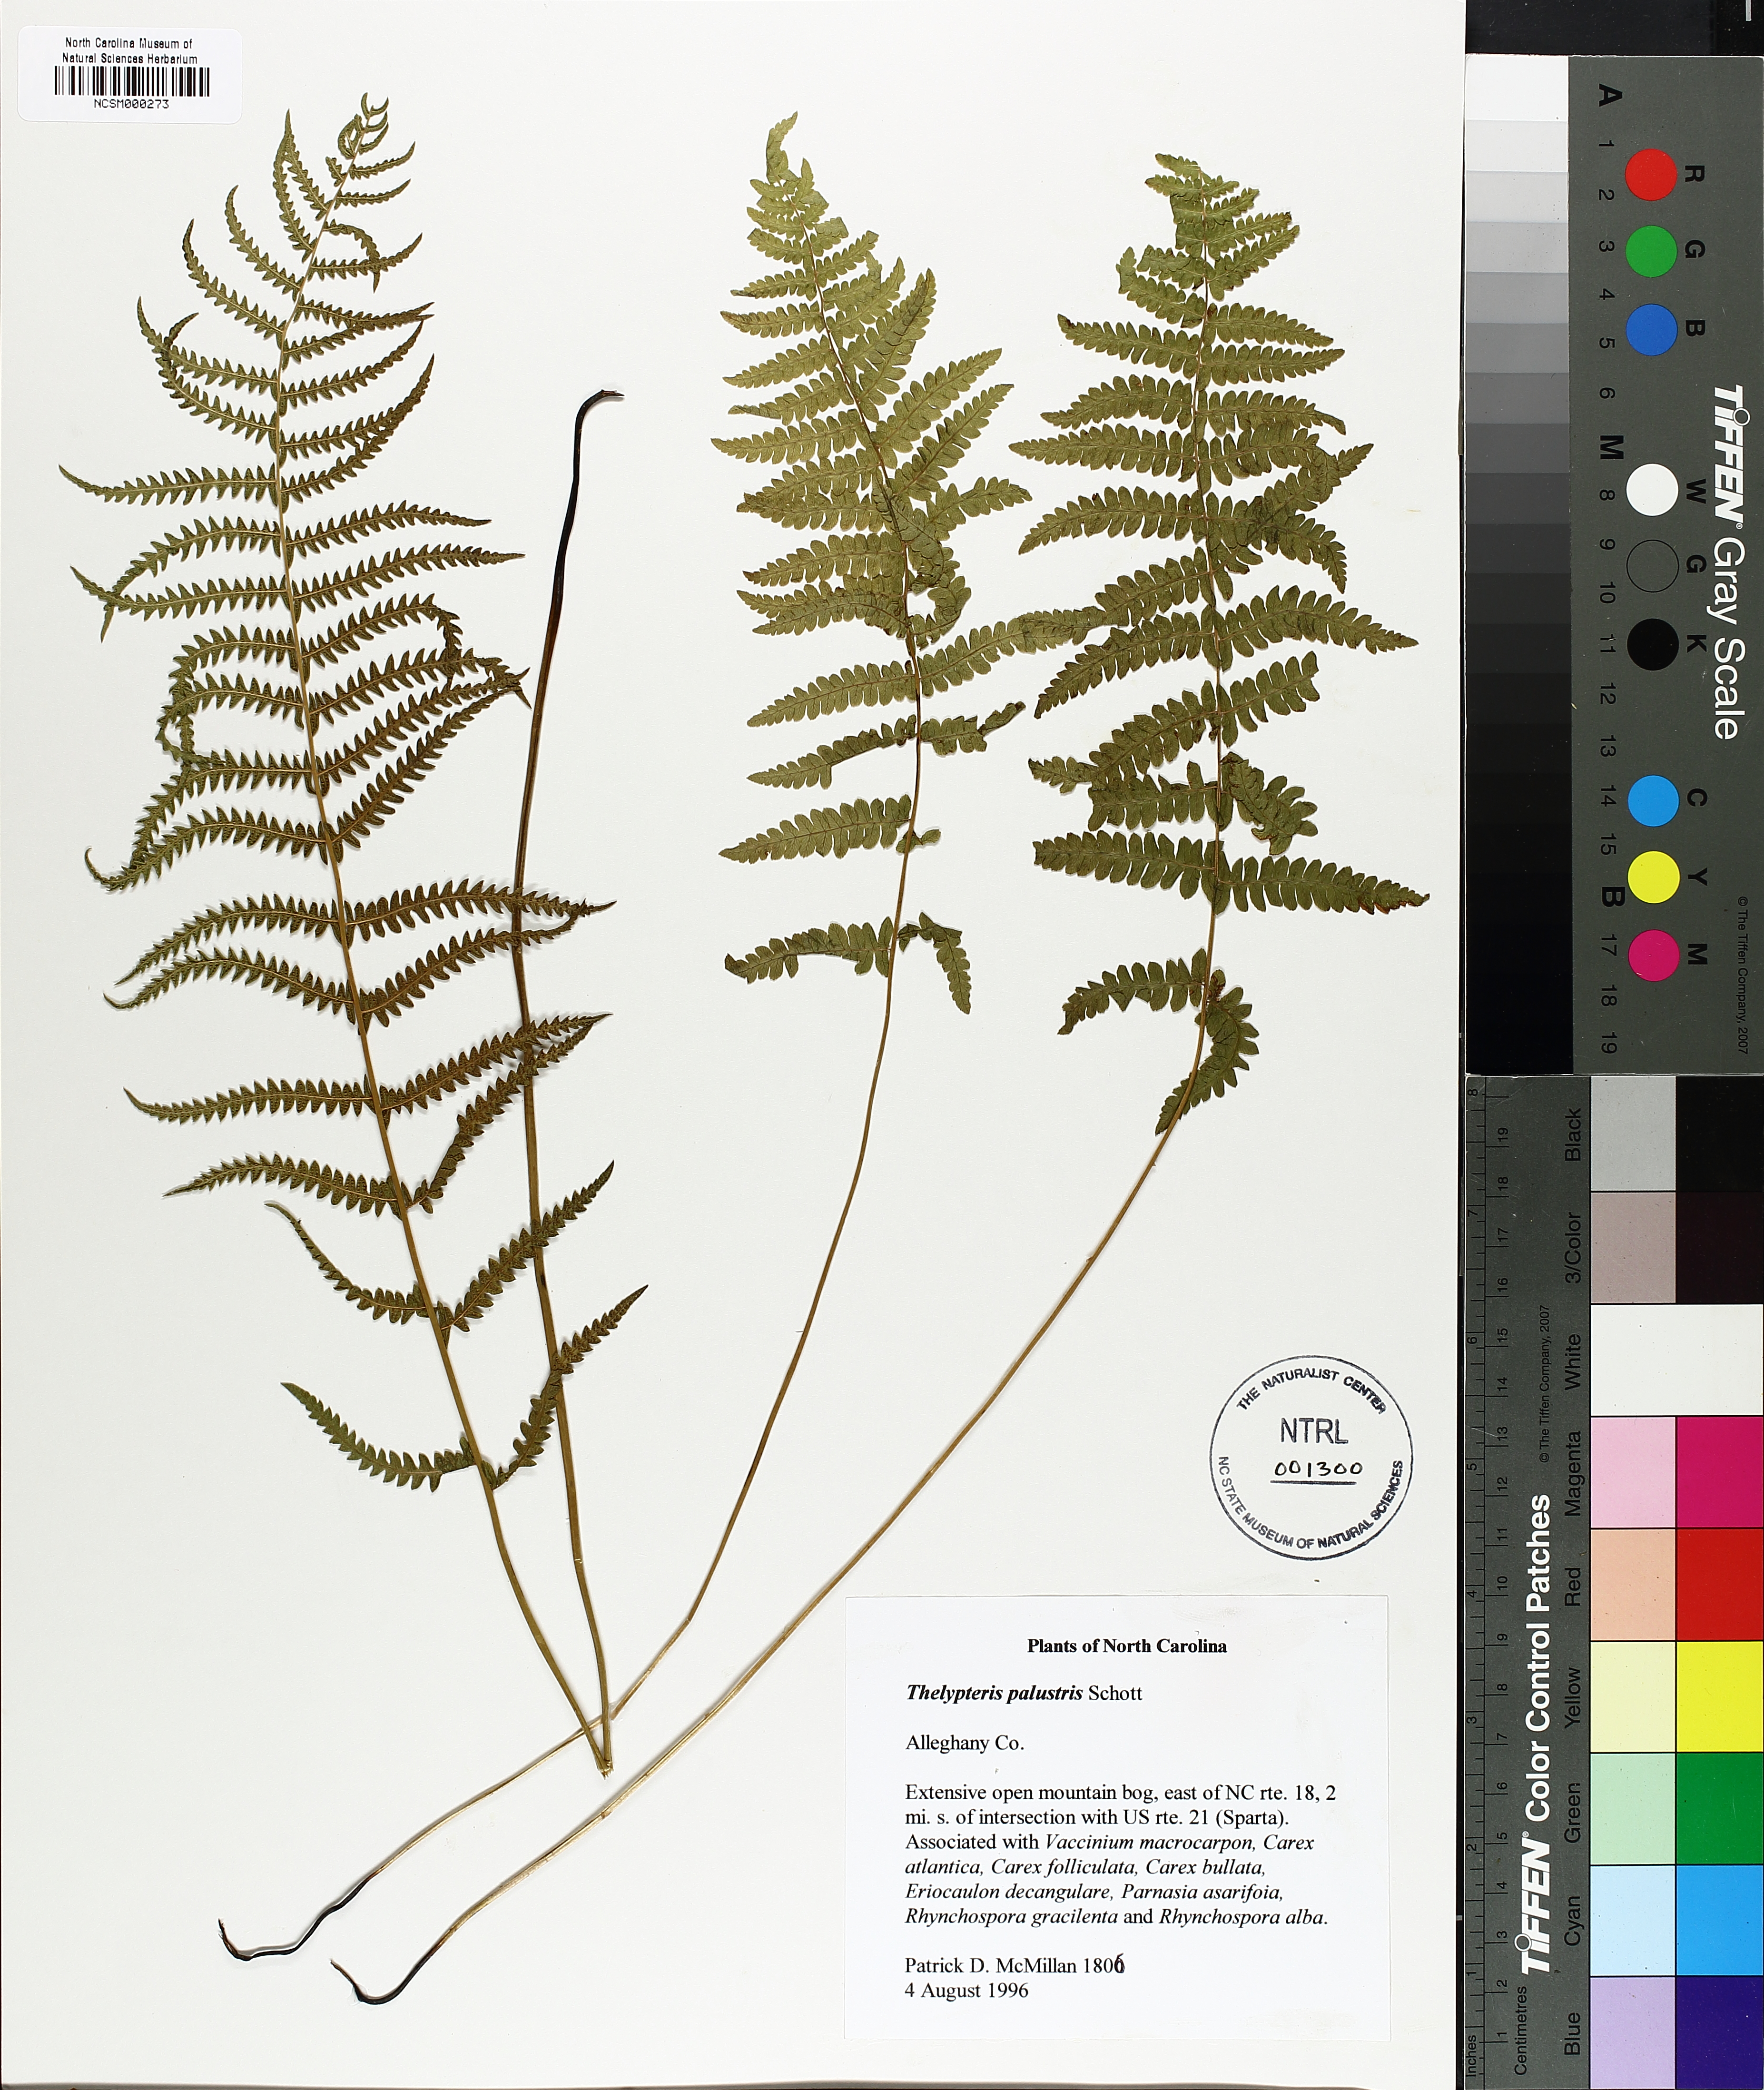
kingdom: Plantae
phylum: Tracheophyta
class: Polypodiopsida
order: Polypodiales
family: Thelypteridaceae
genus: Thelypteris
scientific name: Thelypteris palustris
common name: Marsh fern
